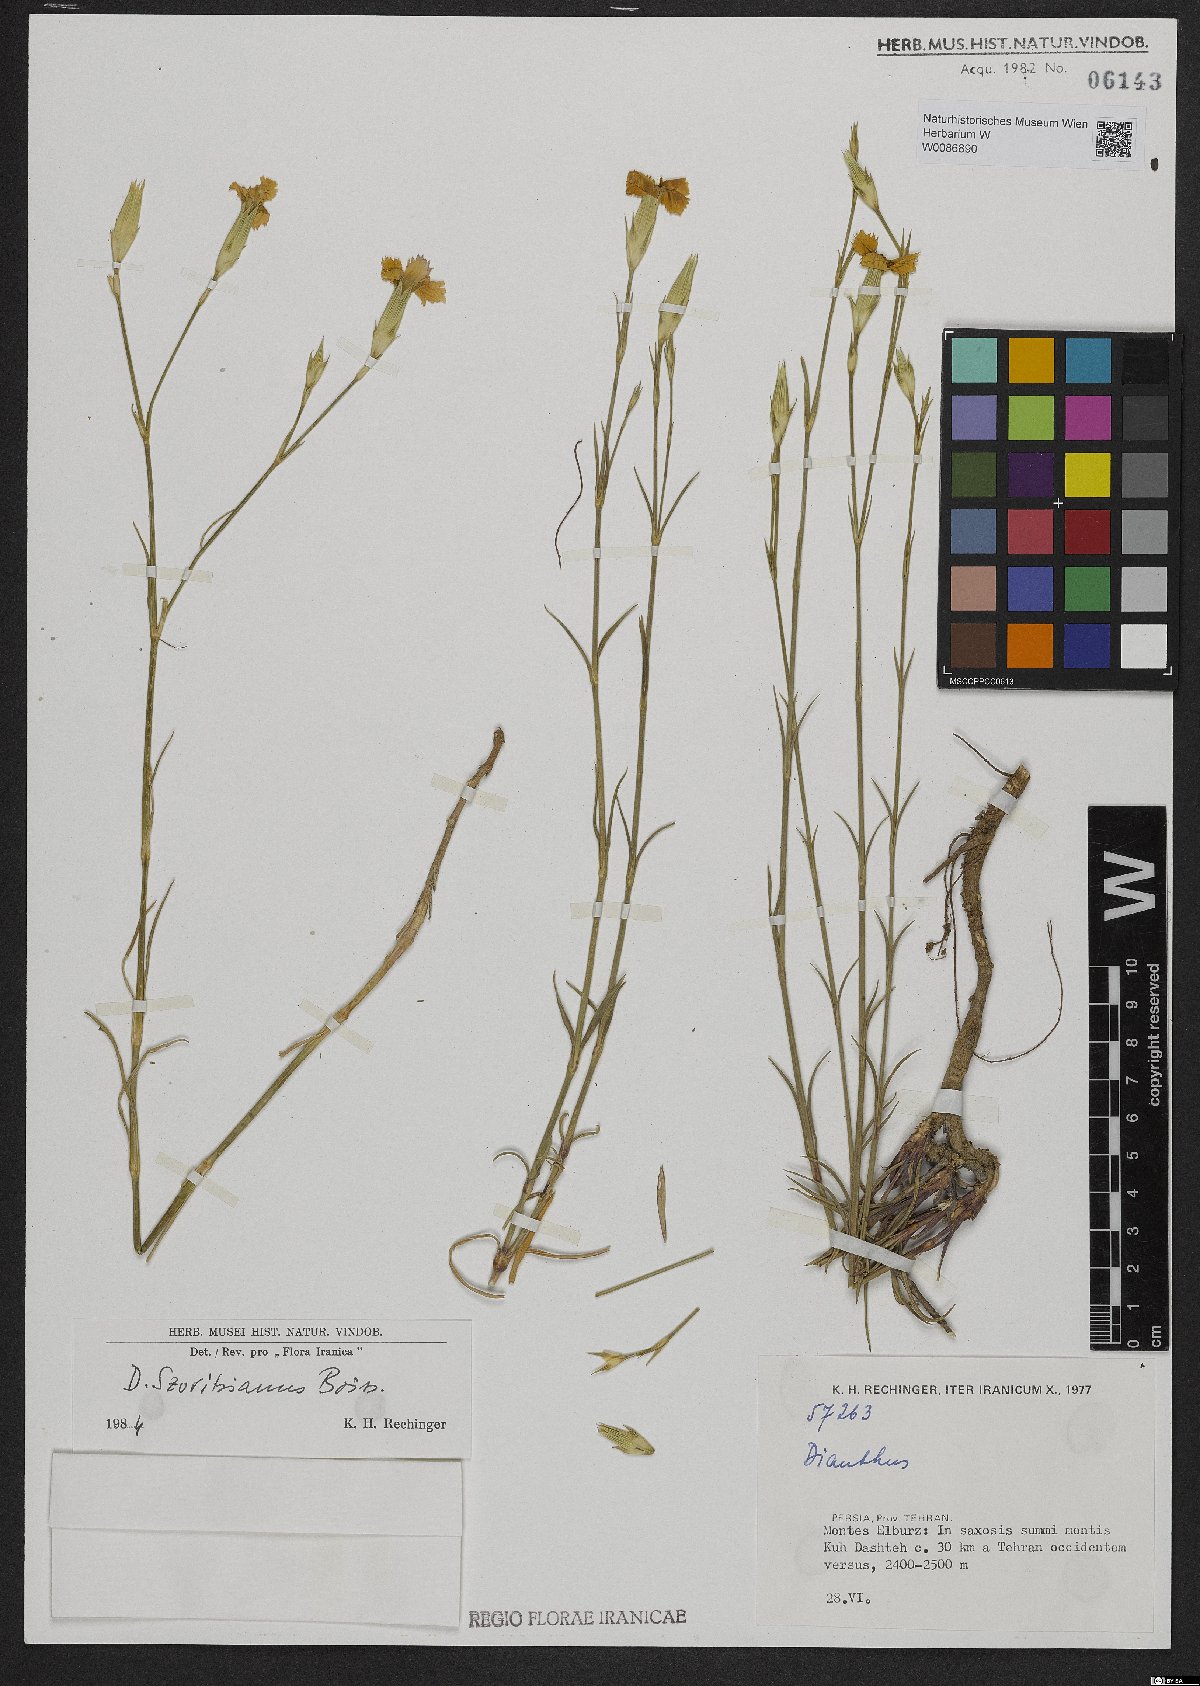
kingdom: Plantae
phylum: Tracheophyta
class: Magnoliopsida
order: Caryophyllales
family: Caryophyllaceae
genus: Dianthus
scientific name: Dianthus szowitsianus
